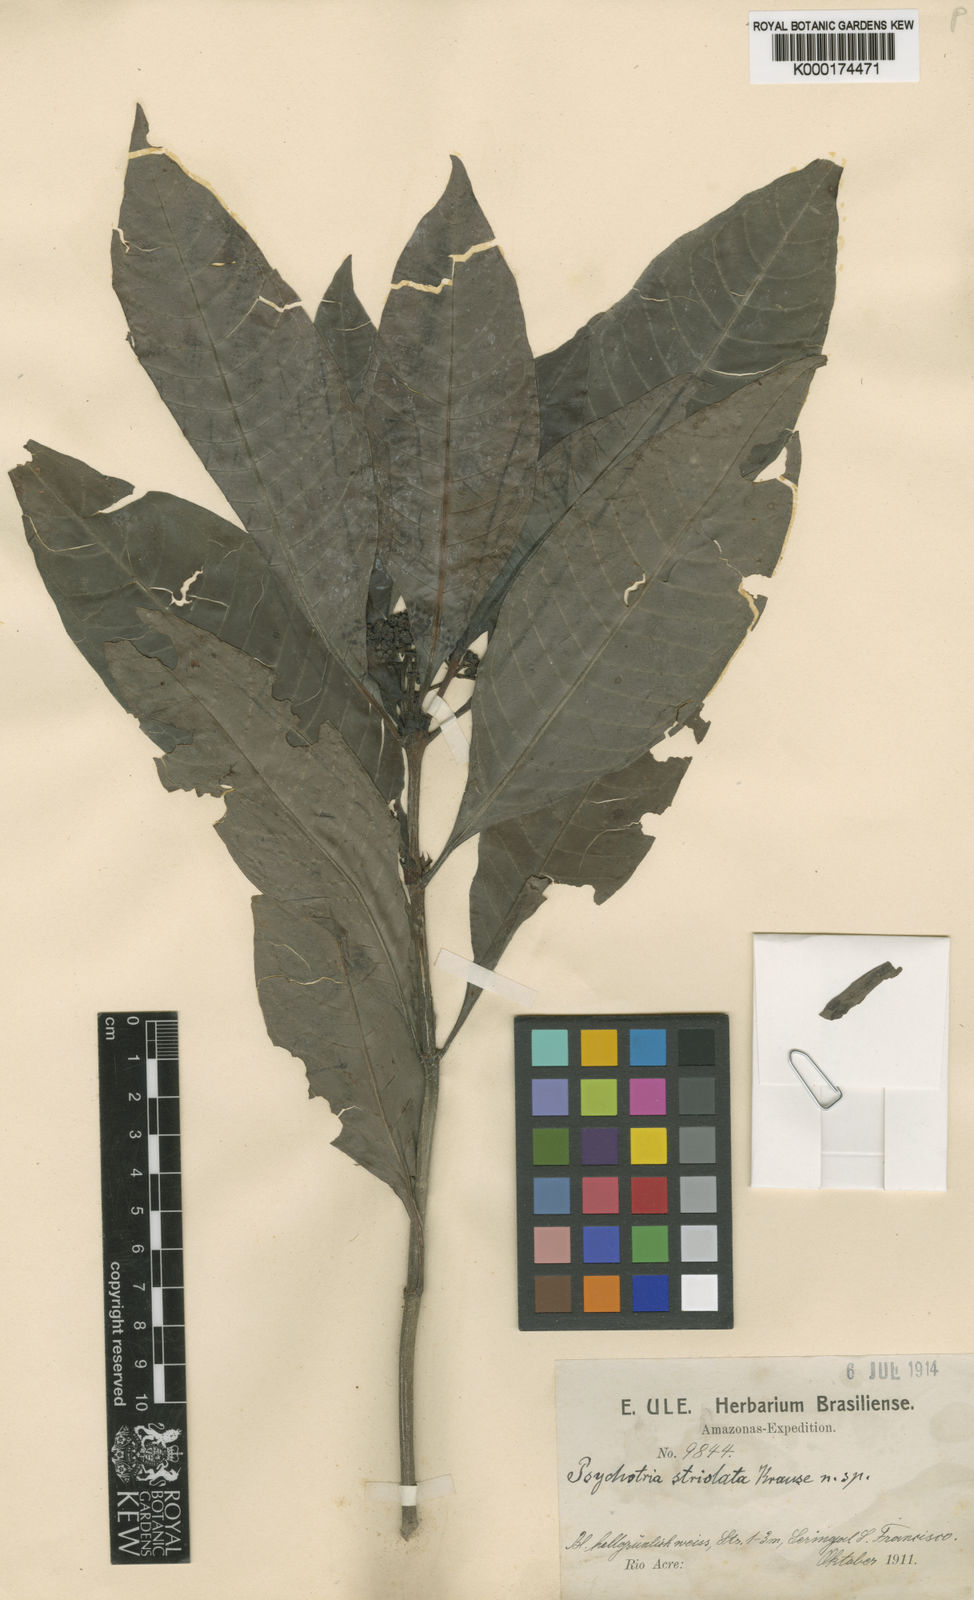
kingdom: Plantae
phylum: Tracheophyta
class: Magnoliopsida
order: Gentianales
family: Rubiaceae
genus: Psychotria
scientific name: Psychotria striolata
